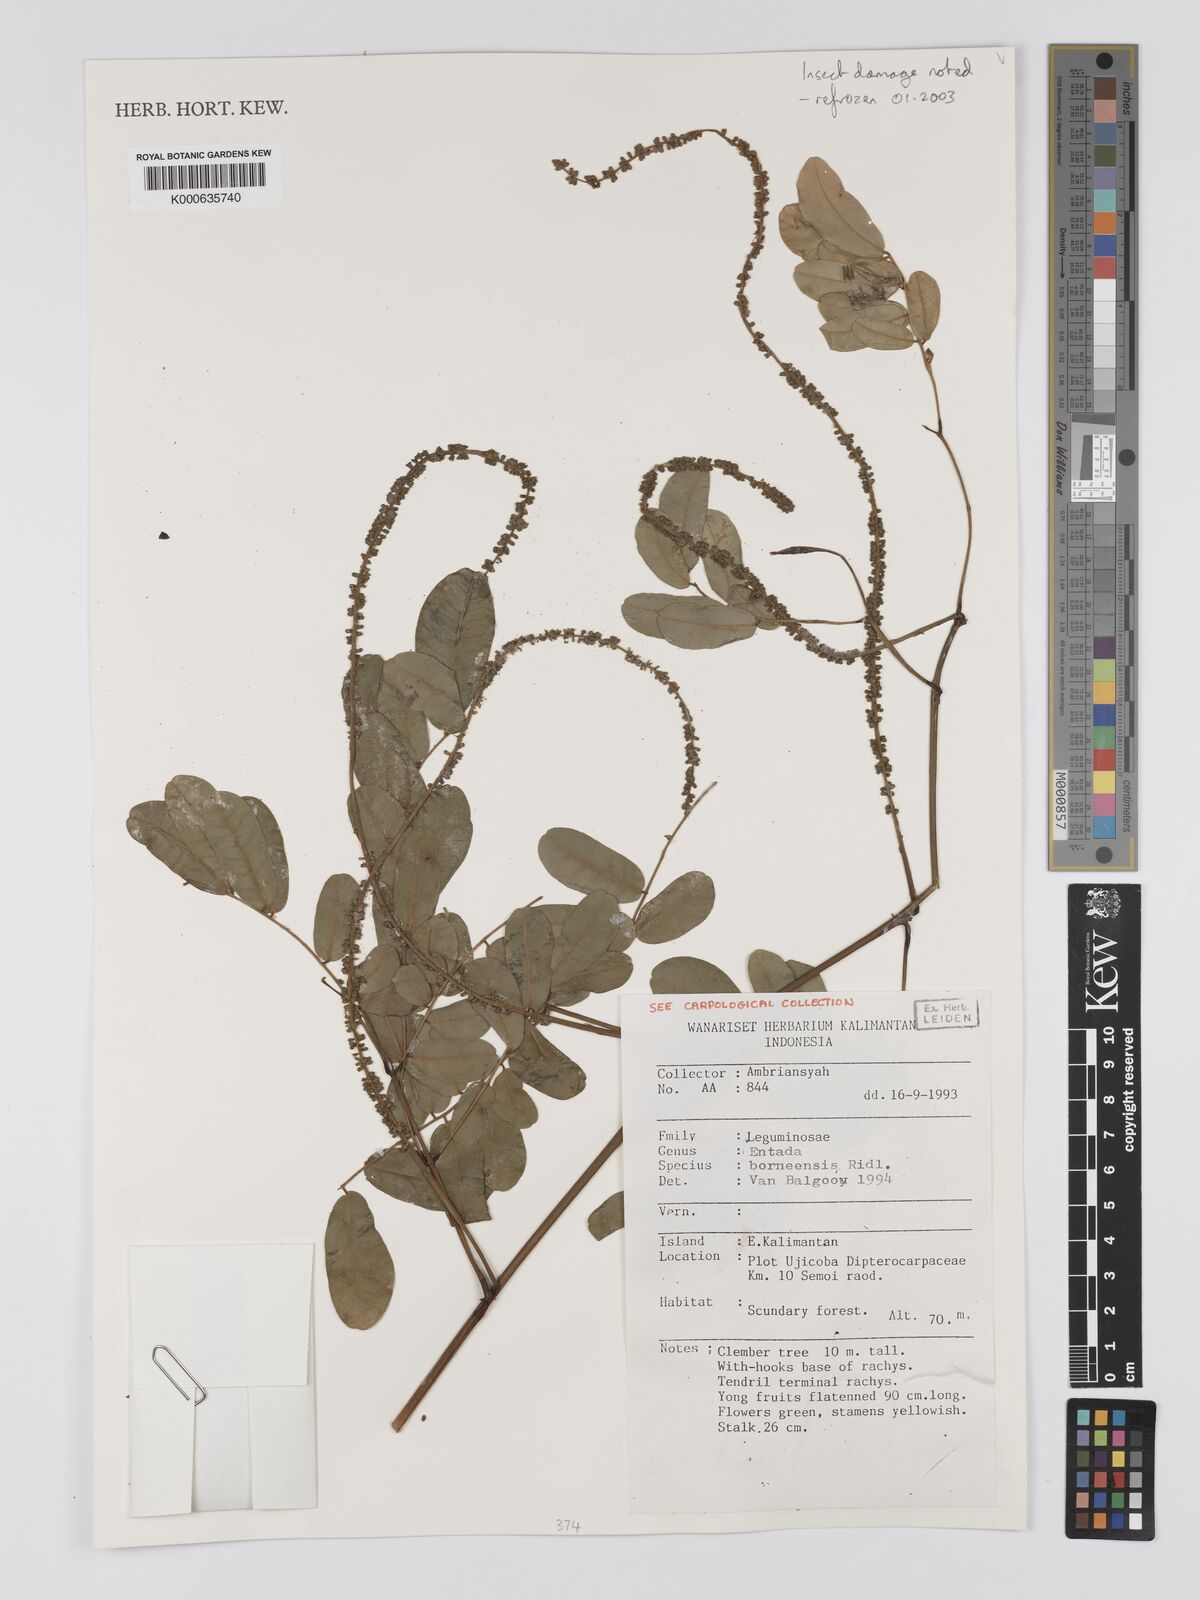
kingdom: Plantae
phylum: Tracheophyta
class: Magnoliopsida
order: Fabales
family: Fabaceae
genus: Entada
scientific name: Entada borneensis
